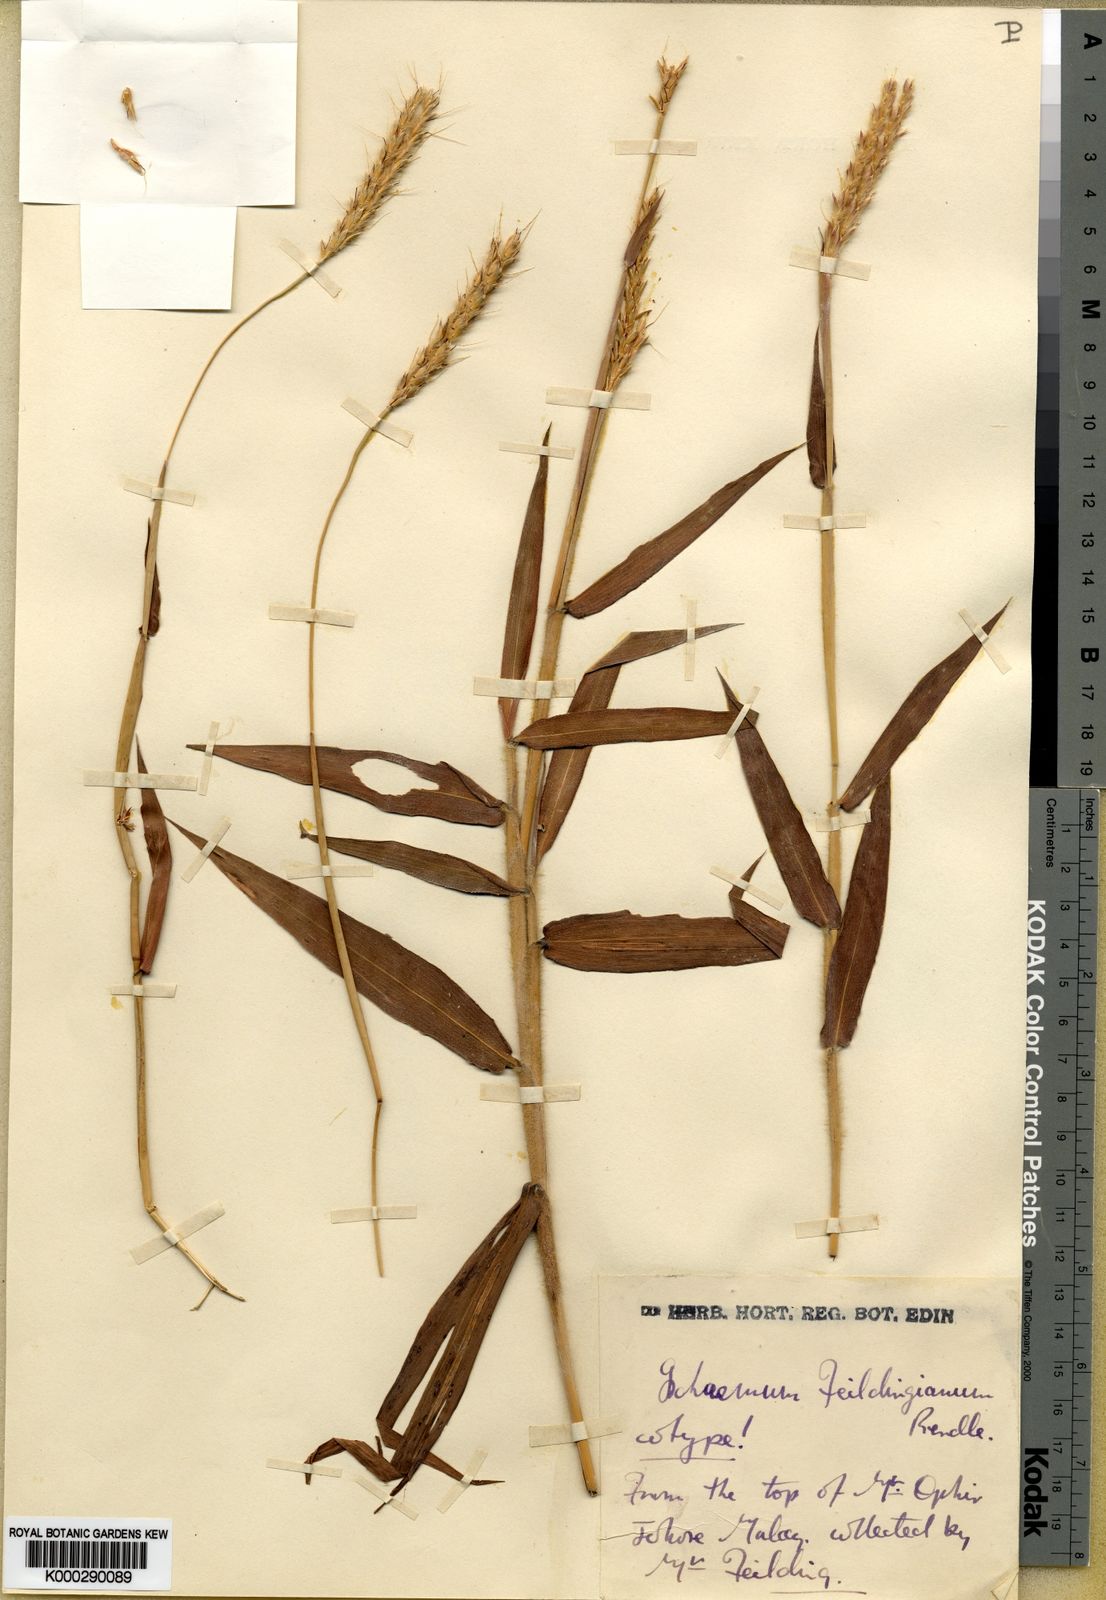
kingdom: Plantae
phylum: Tracheophyta
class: Liliopsida
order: Poales
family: Poaceae
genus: Ischaemum
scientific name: Ischaemum feildingianum
